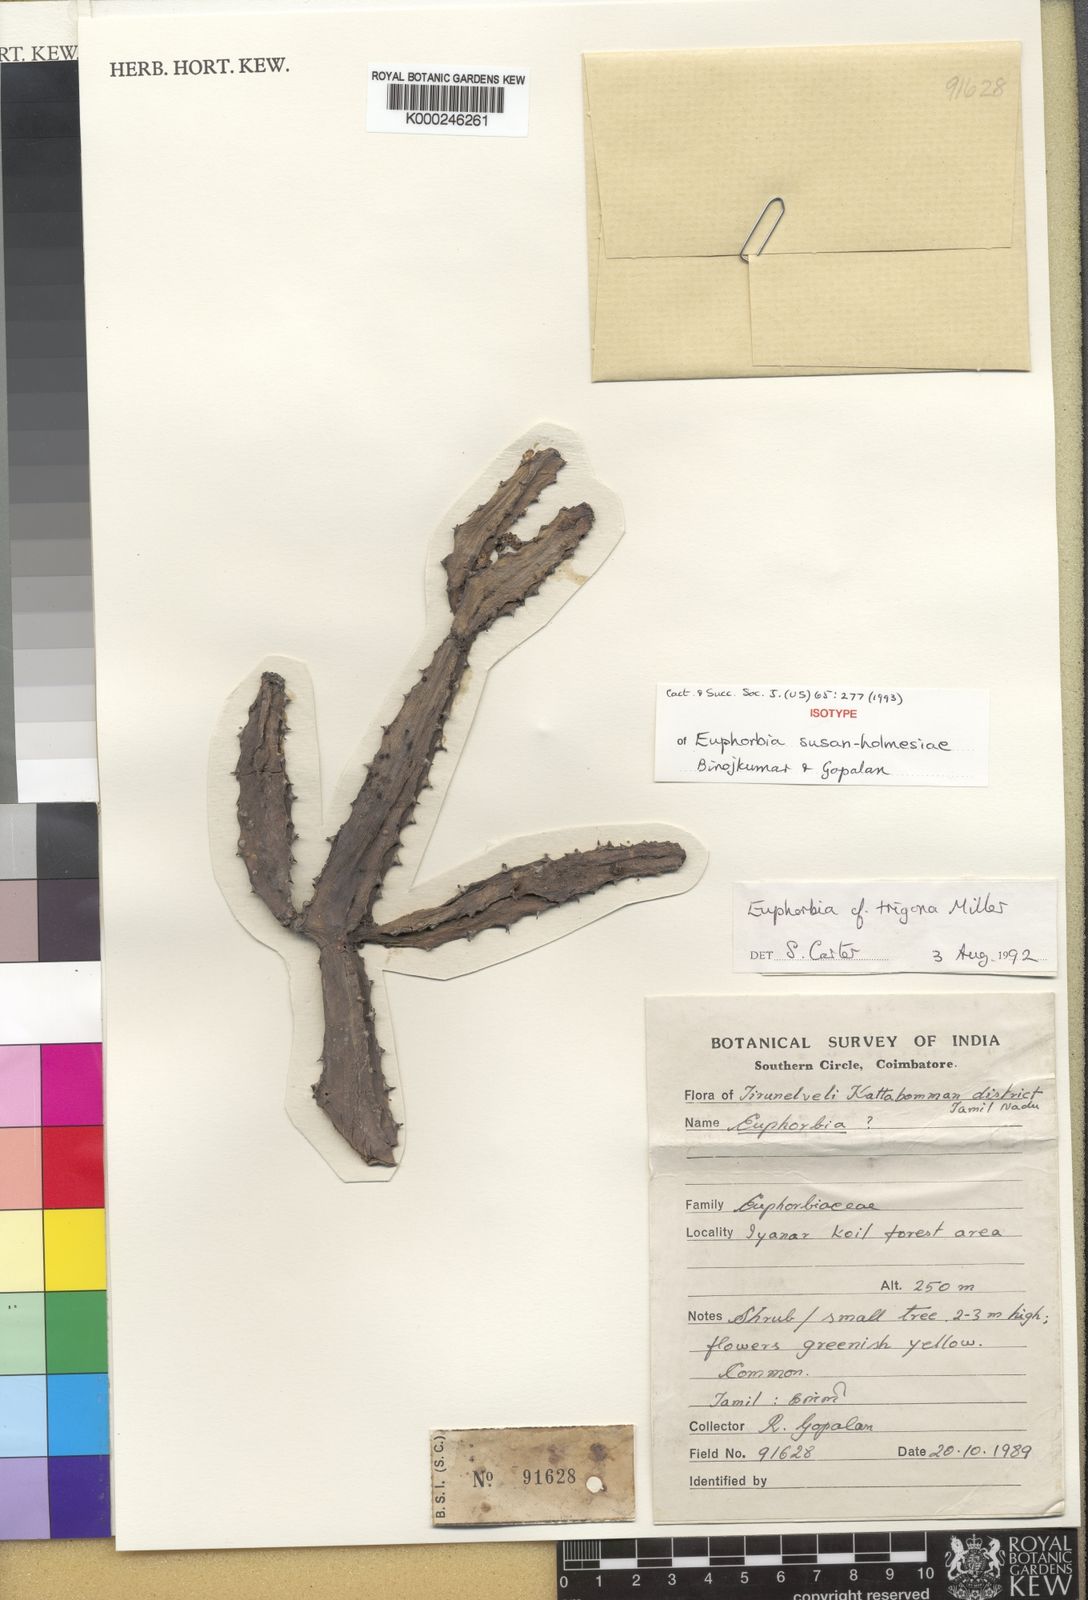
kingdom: Plantae
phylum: Tracheophyta
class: Magnoliopsida
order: Malpighiales
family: Euphorbiaceae
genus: Euphorbia
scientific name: Euphorbia susan-holmesiae
